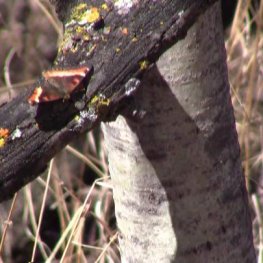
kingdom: Animalia
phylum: Arthropoda
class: Insecta
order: Lepidoptera
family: Nymphalidae
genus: Aglais
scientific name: Aglais milberti
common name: Milbert's Tortoiseshell
